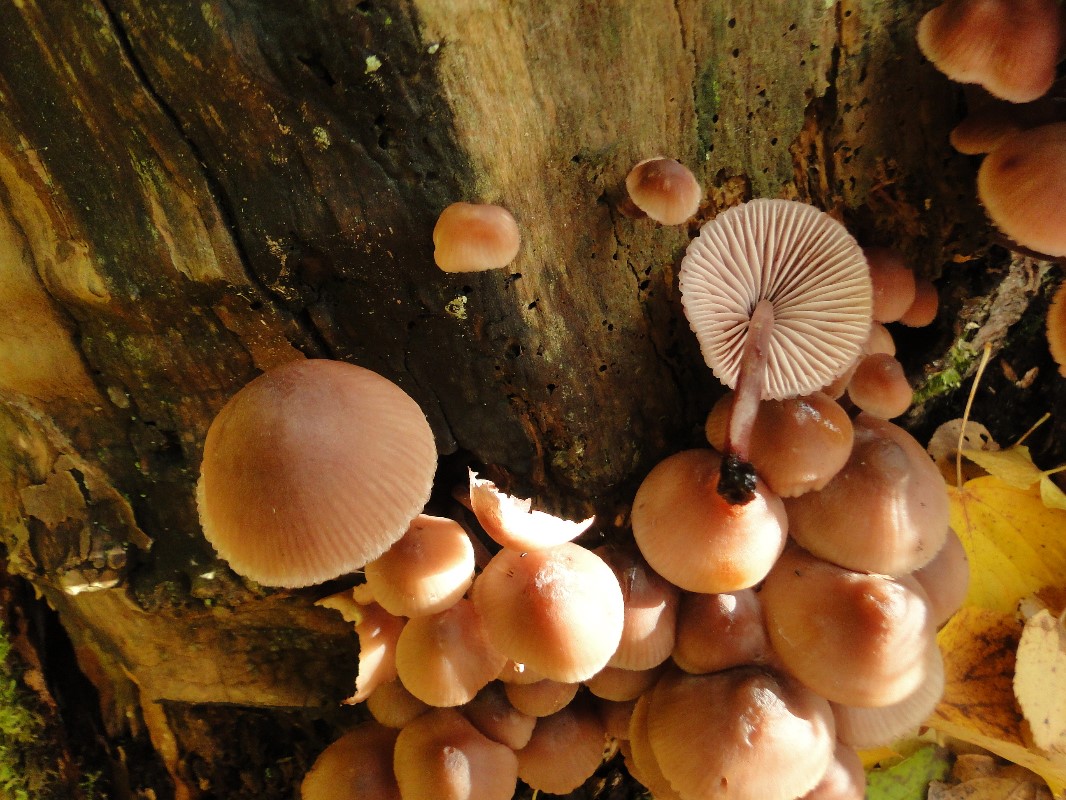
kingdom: Fungi
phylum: Basidiomycota
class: Agaricomycetes
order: Agaricales
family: Mycenaceae
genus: Mycena
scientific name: Mycena haematopus
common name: blødende huesvamp
